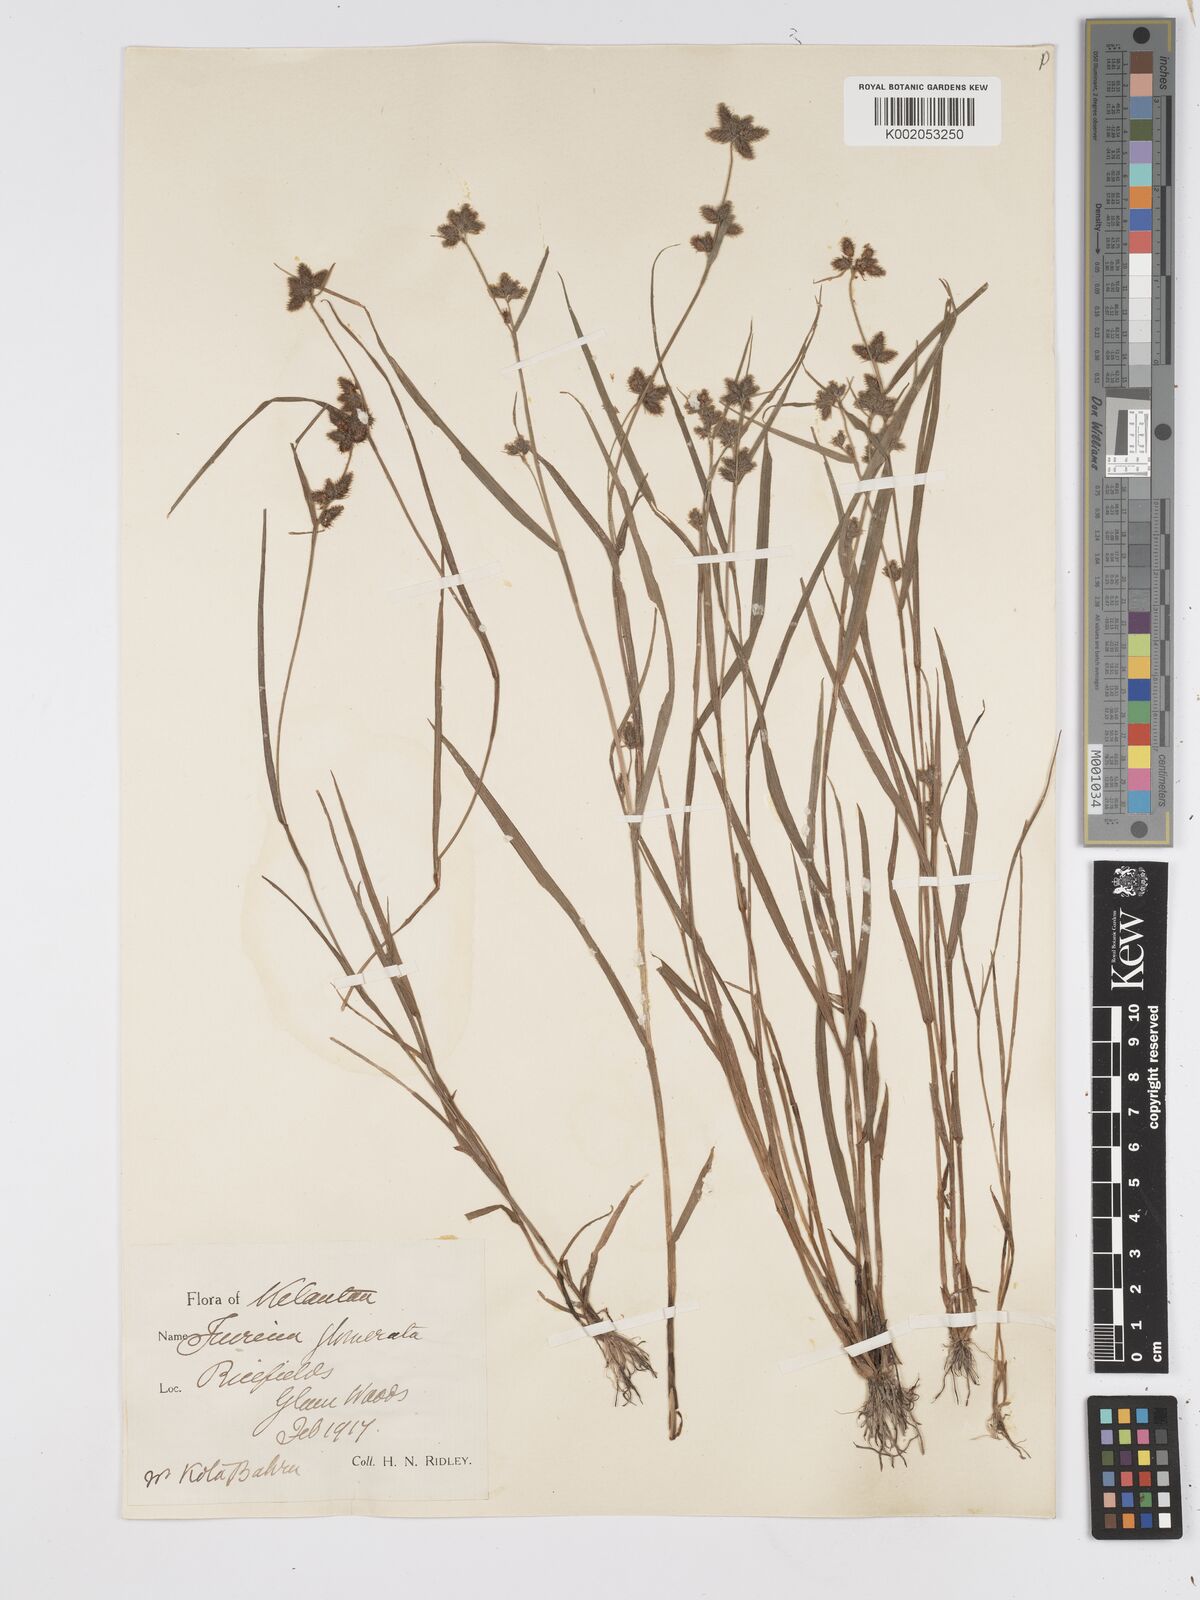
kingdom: Plantae
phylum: Tracheophyta
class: Liliopsida
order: Poales
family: Cyperaceae
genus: Fuirena
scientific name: Fuirena ciliaris
